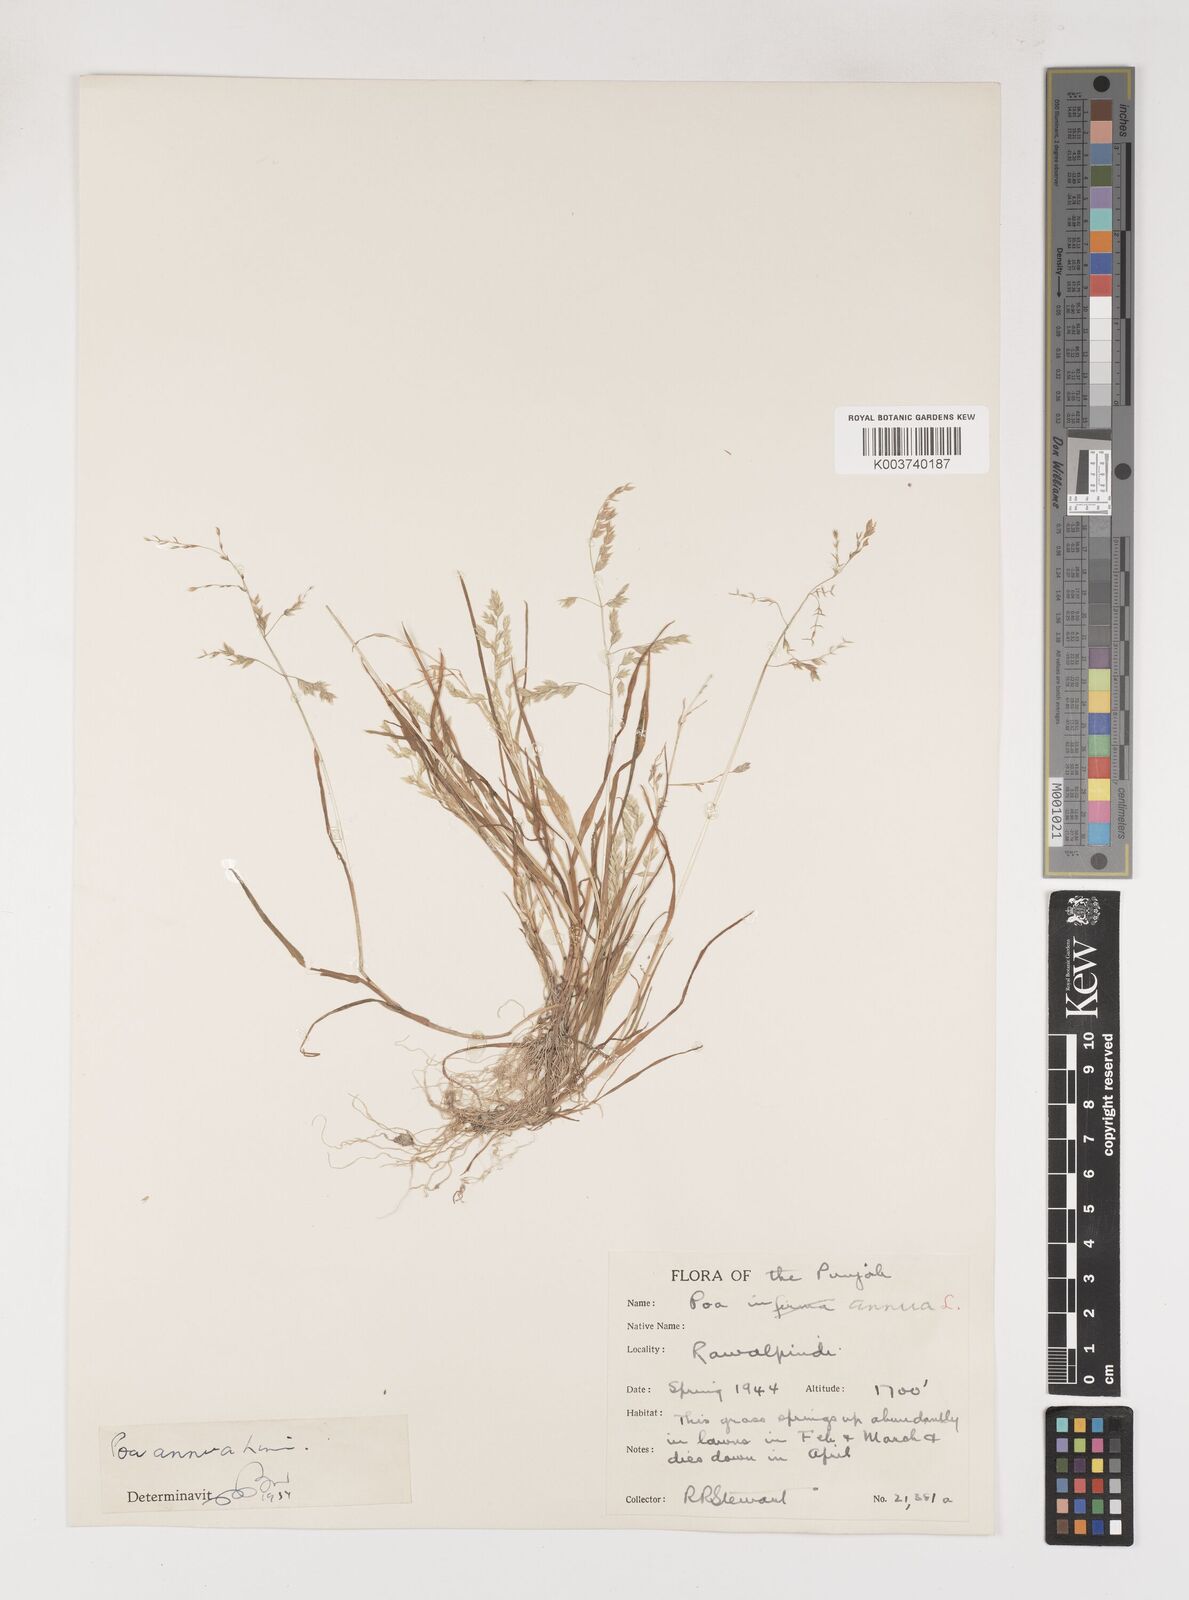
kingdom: Plantae
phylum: Tracheophyta
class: Liliopsida
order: Poales
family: Poaceae
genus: Poa
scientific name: Poa annua
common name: Annual bluegrass
